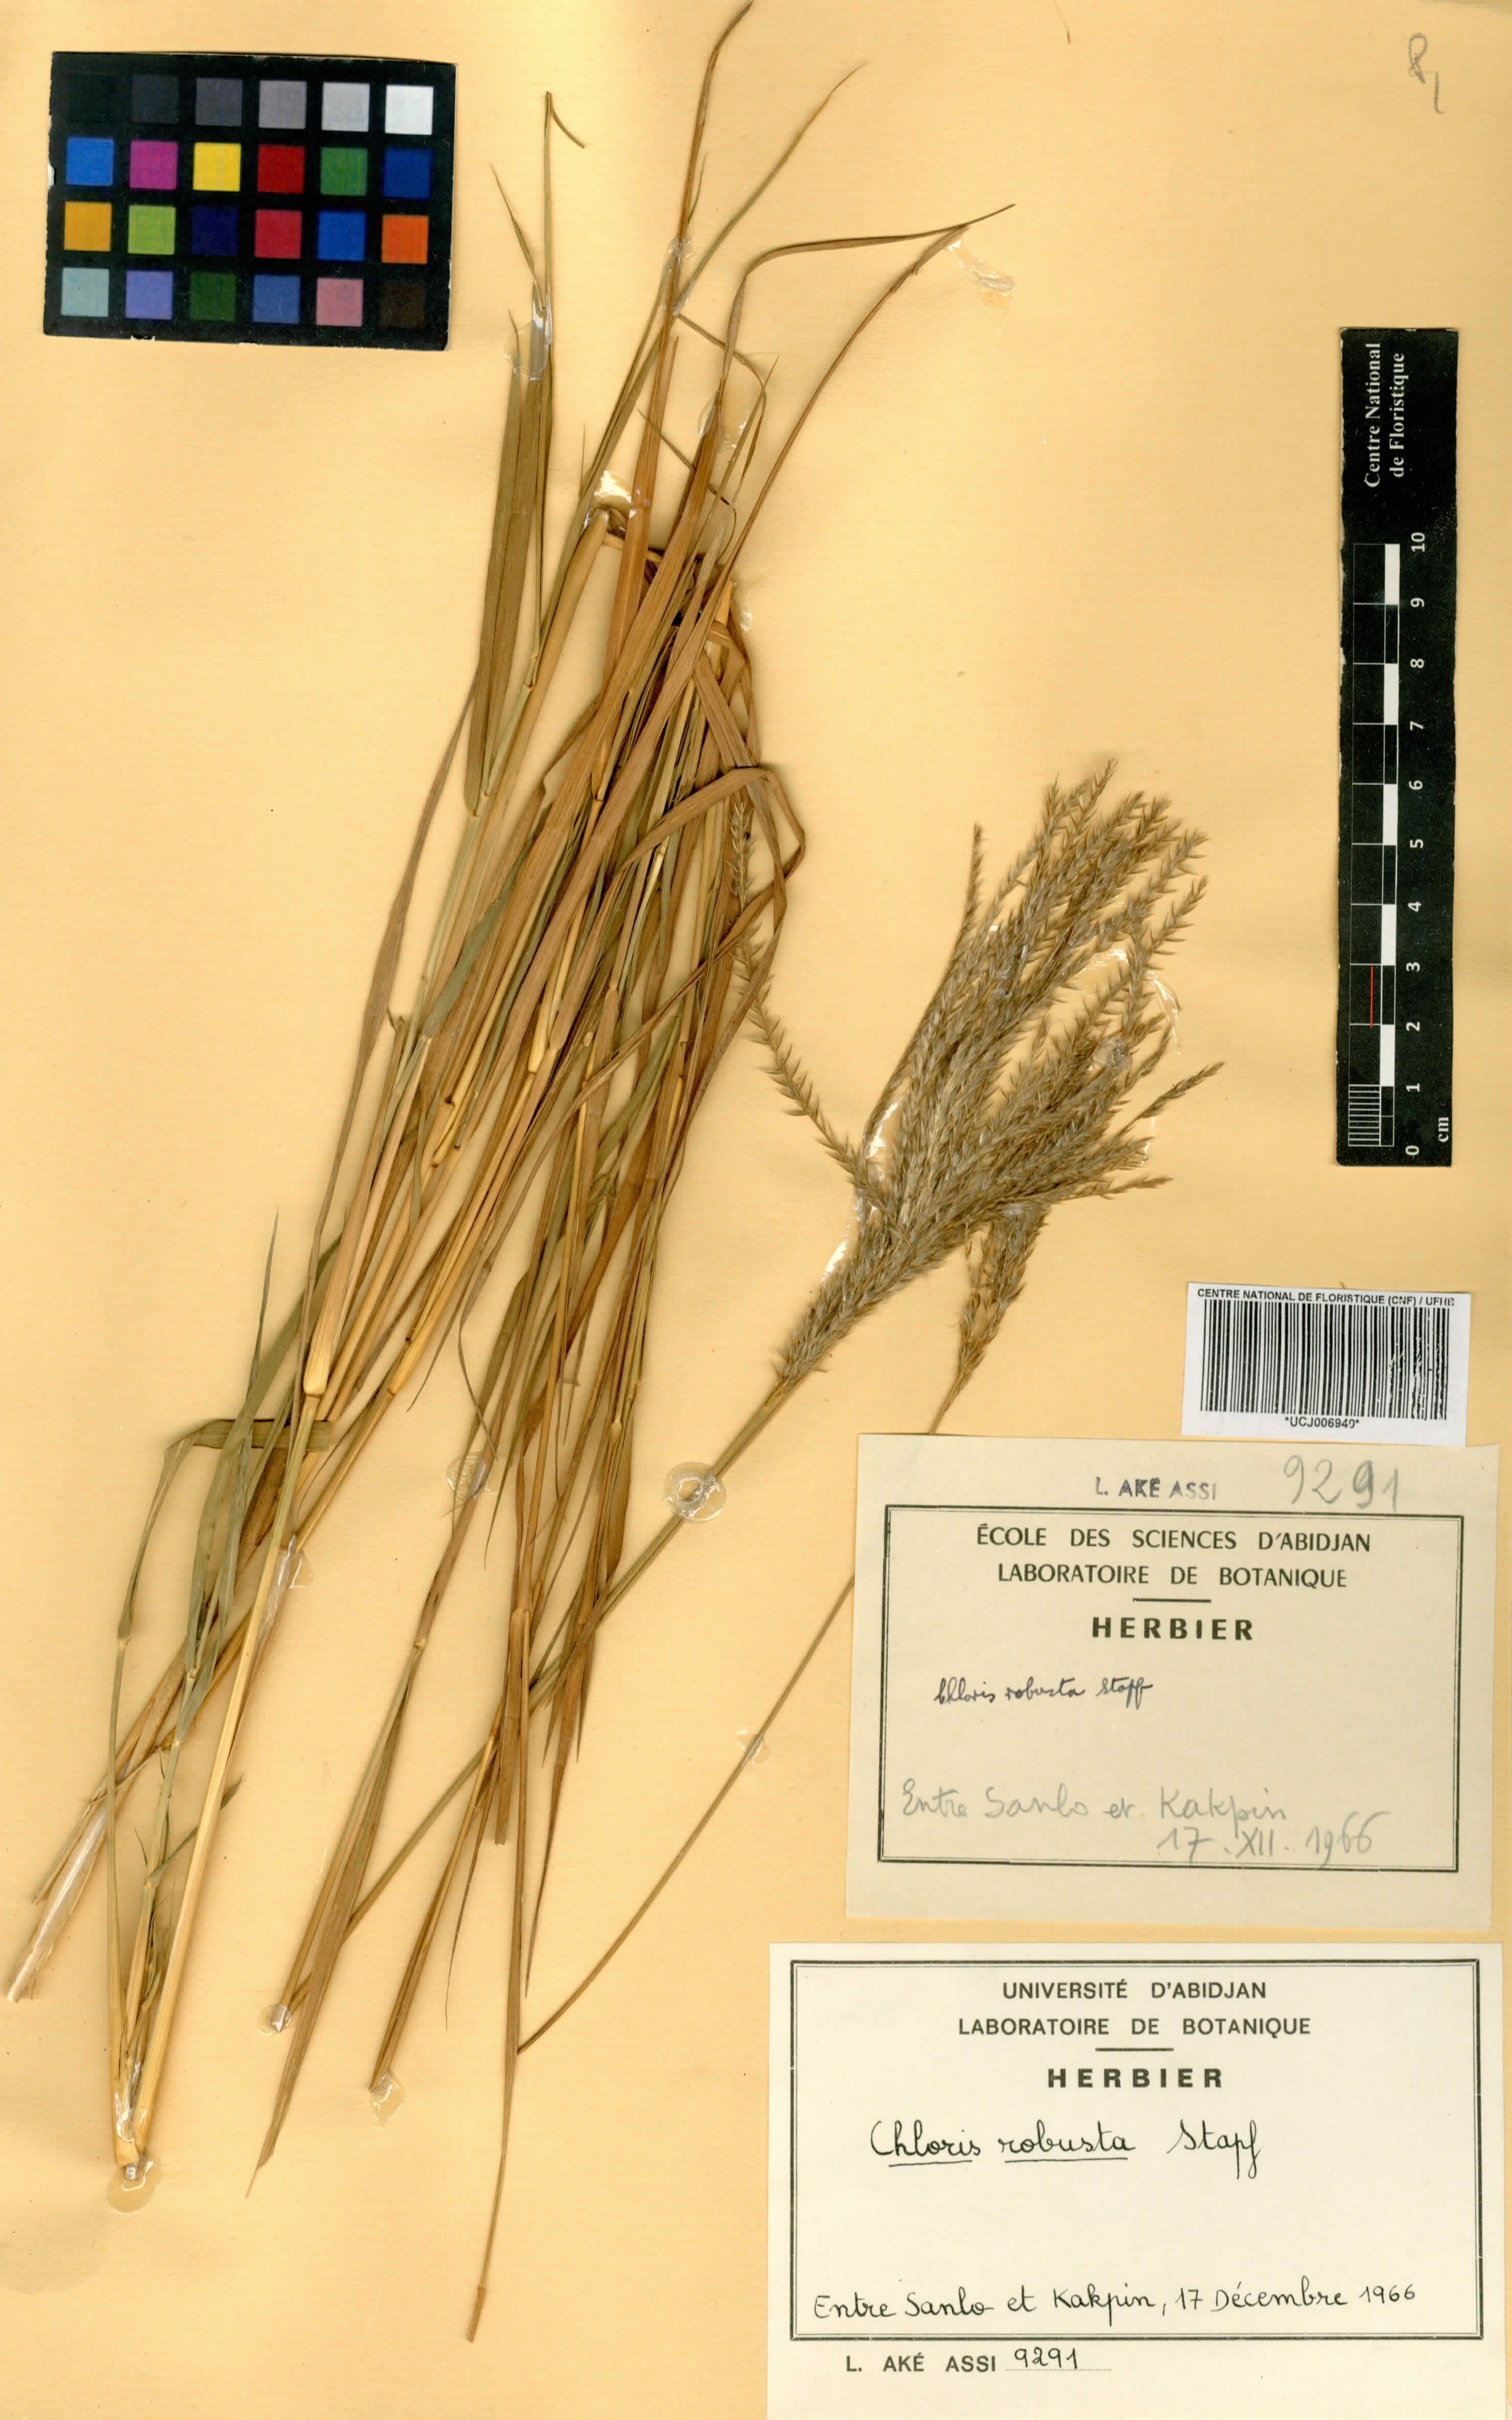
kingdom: Plantae
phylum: Tracheophyta
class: Liliopsida
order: Poales
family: Poaceae
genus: Chloris
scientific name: Chloris robusta
